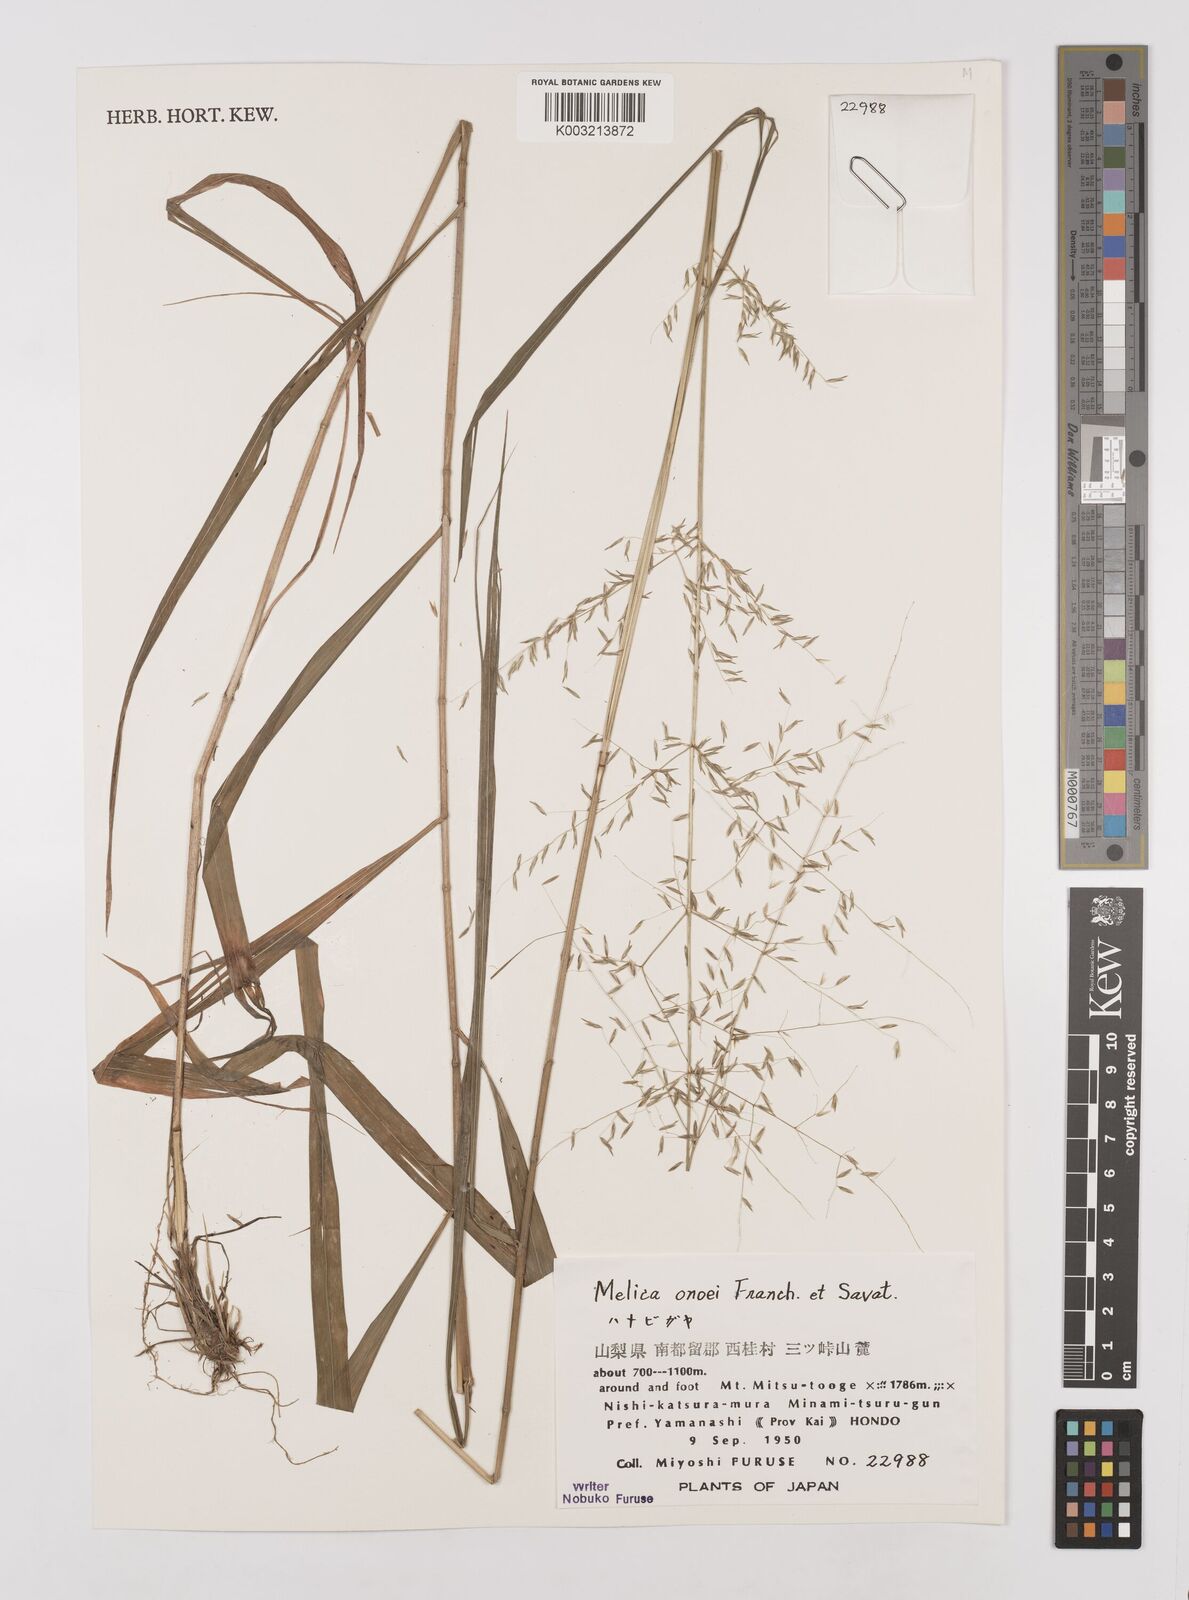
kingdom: Plantae
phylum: Tracheophyta
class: Liliopsida
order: Poales
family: Poaceae
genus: Melica
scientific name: Melica onoei
